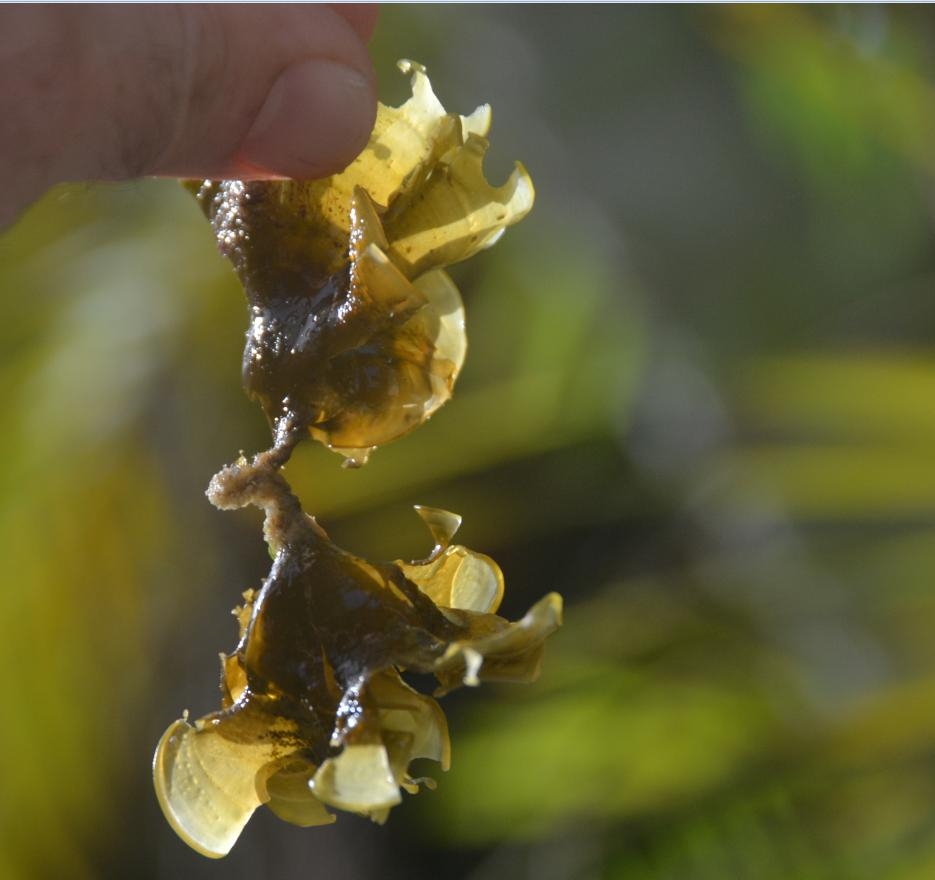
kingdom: Chromista
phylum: Ochrophyta
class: Phaeophyceae
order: Dictyotales
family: Dictyotaceae
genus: Padina
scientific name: Padina pavonica
